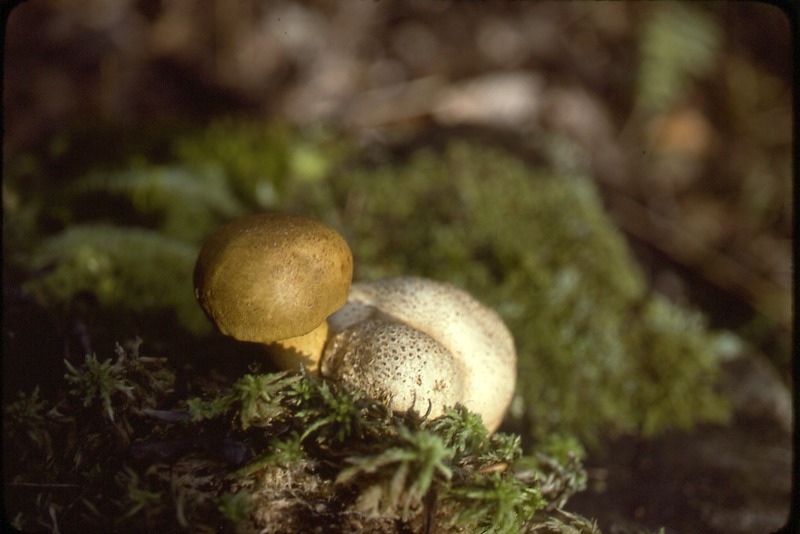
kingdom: Fungi
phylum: Basidiomycota
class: Agaricomycetes
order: Boletales
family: Boletaceae
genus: Pseudoboletus
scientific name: Pseudoboletus parasiticus
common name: Parasitic bolete
